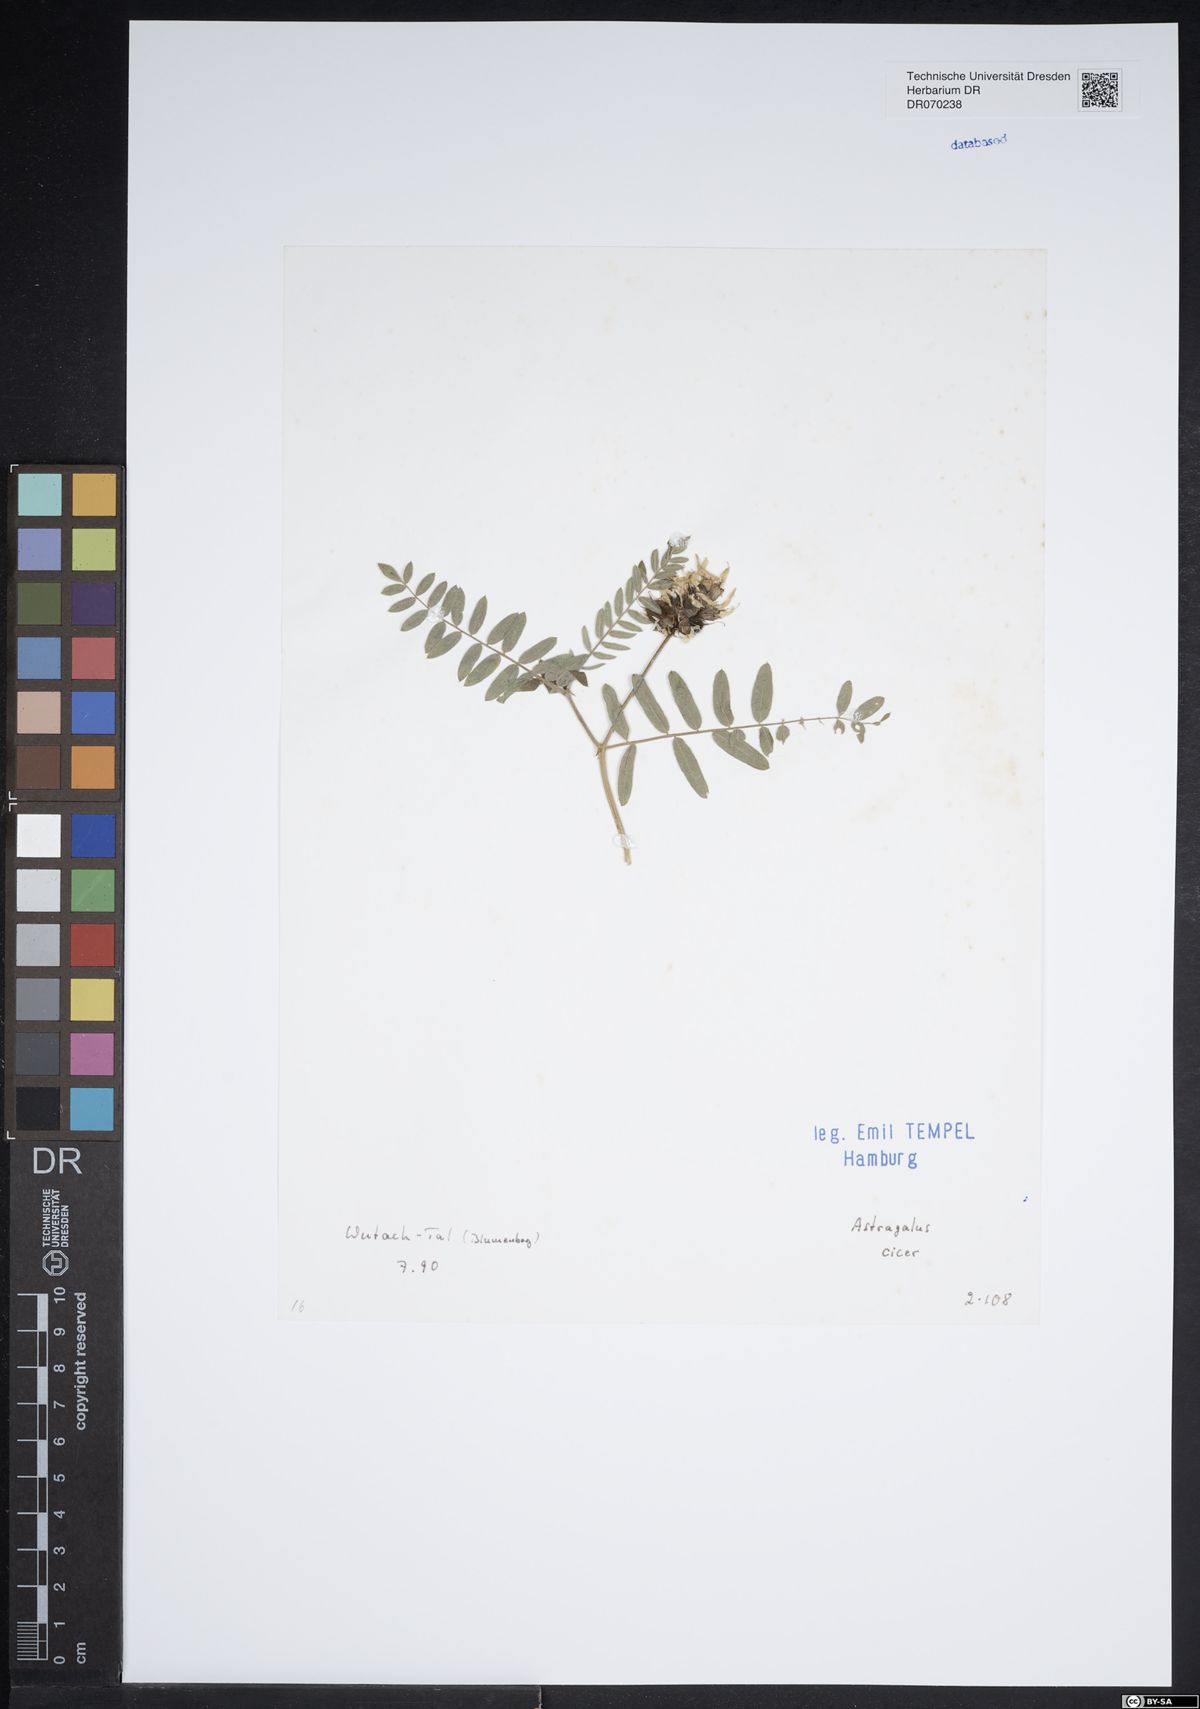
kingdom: Plantae
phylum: Tracheophyta
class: Magnoliopsida
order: Fabales
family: Fabaceae
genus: Astragalus
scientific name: Astragalus cicer
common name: Chick-pea milk-vetch
